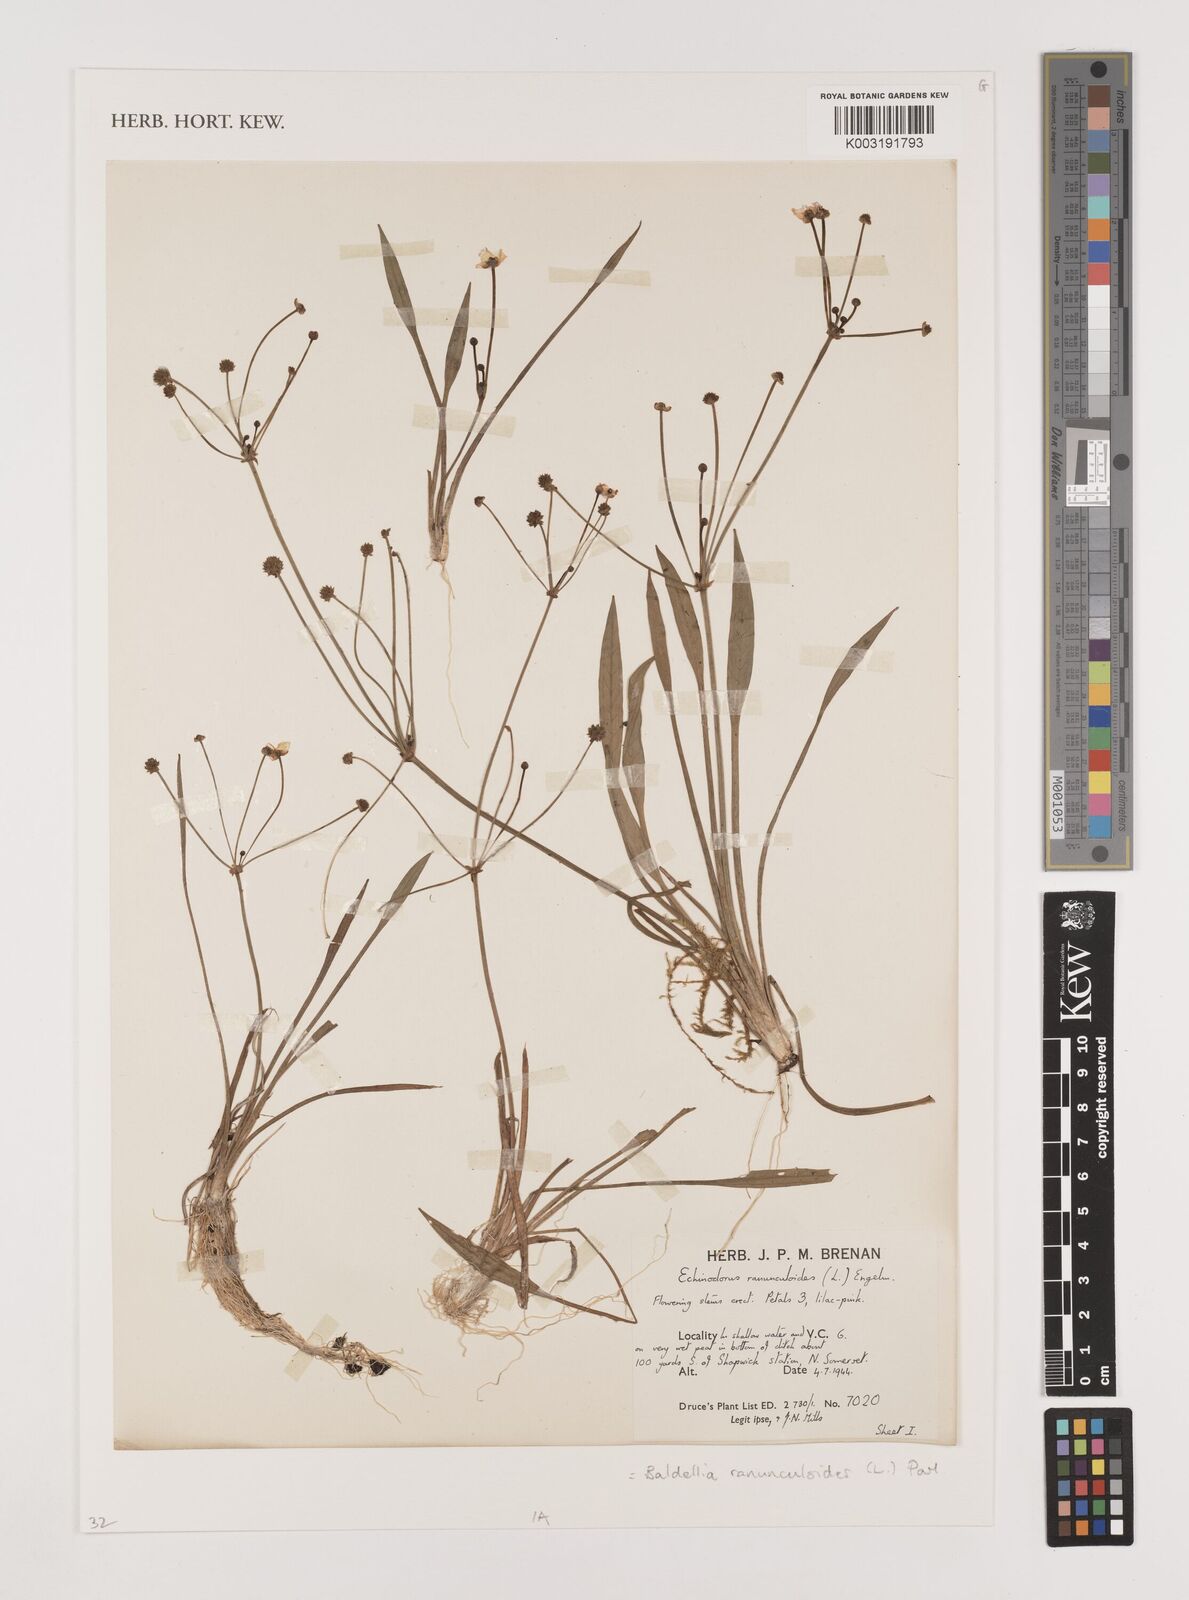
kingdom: Plantae
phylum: Tracheophyta
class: Liliopsida
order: Alismatales
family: Alismataceae
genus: Baldellia
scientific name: Baldellia ranunculoides
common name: Lesser water-plantain
